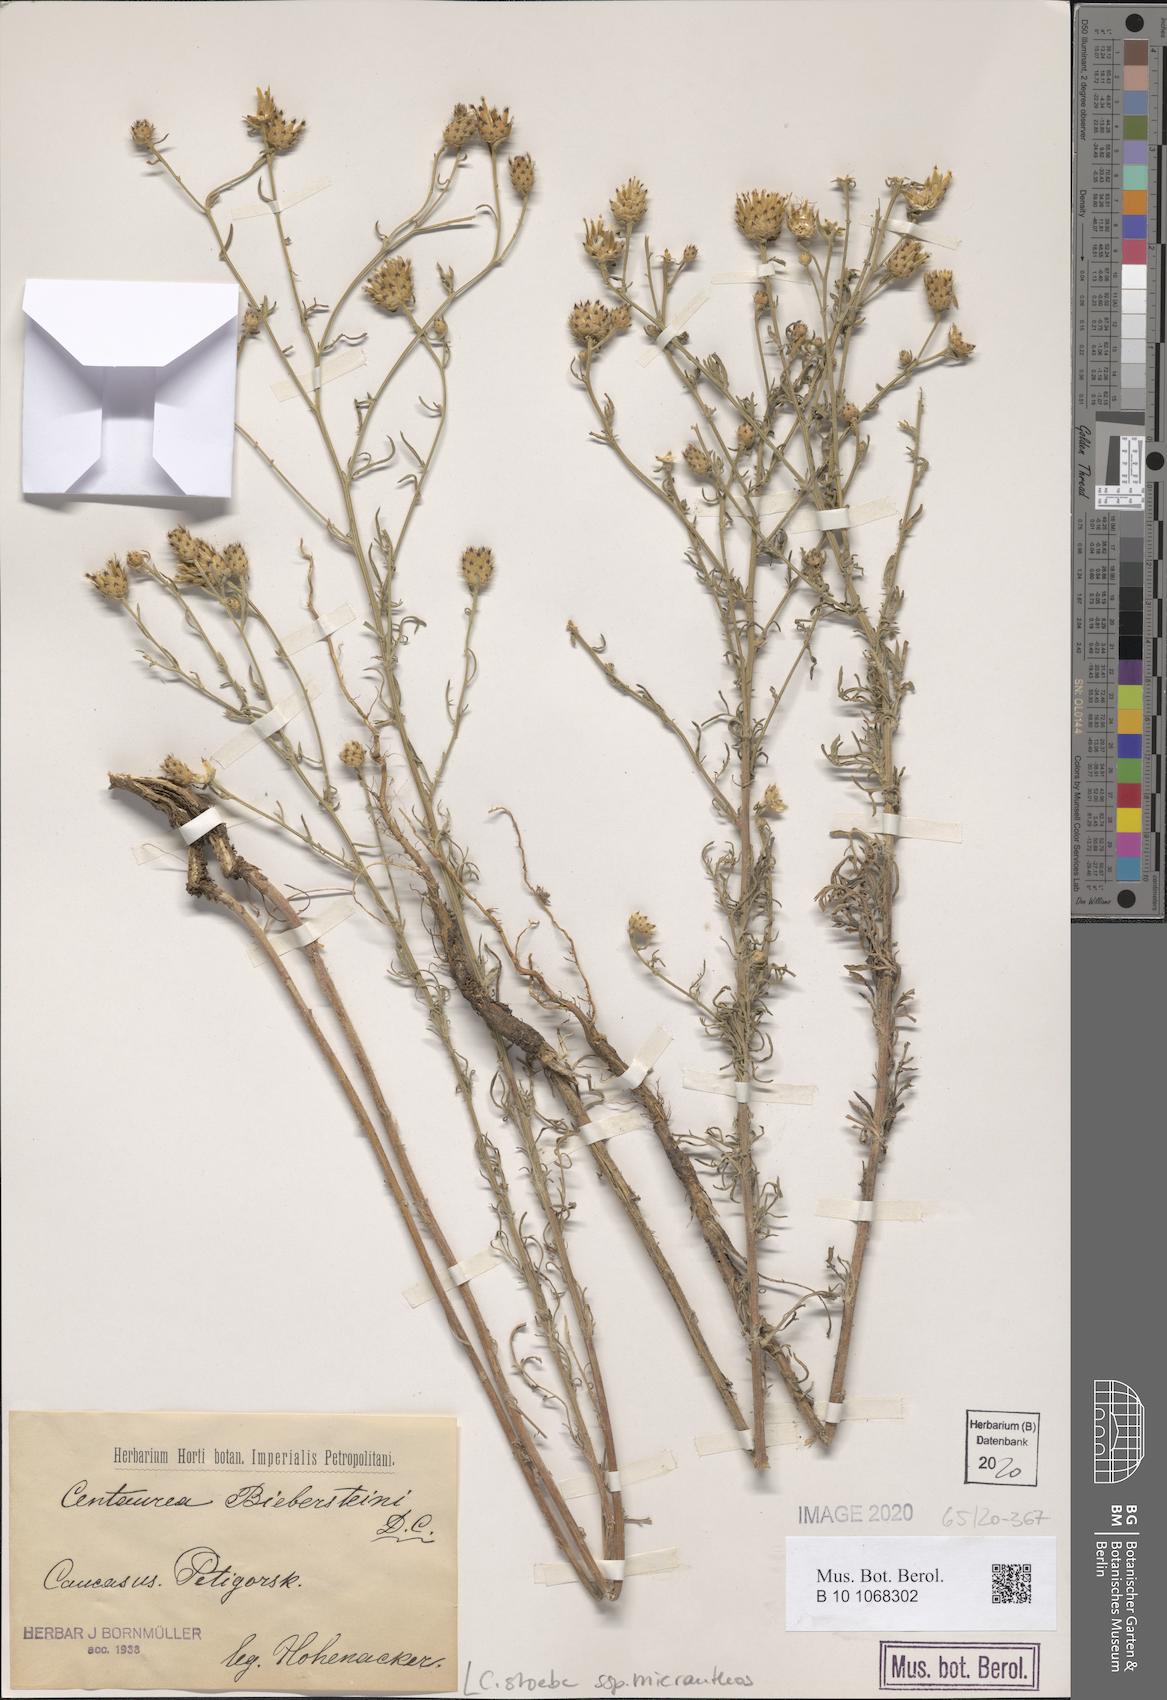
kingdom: Plantae
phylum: Tracheophyta
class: Magnoliopsida
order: Asterales
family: Asteraceae
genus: Centaurea
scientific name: Centaurea australis
